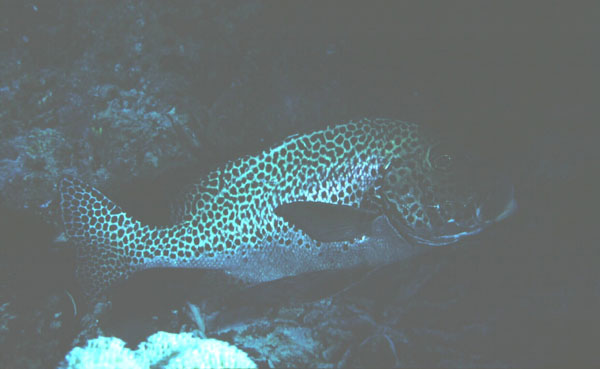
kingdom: Animalia
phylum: Chordata
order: Perciformes
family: Haemulidae
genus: Plectorhinchus
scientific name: Plectorhinchus chaetodonoides
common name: Harlequin sweetlips
